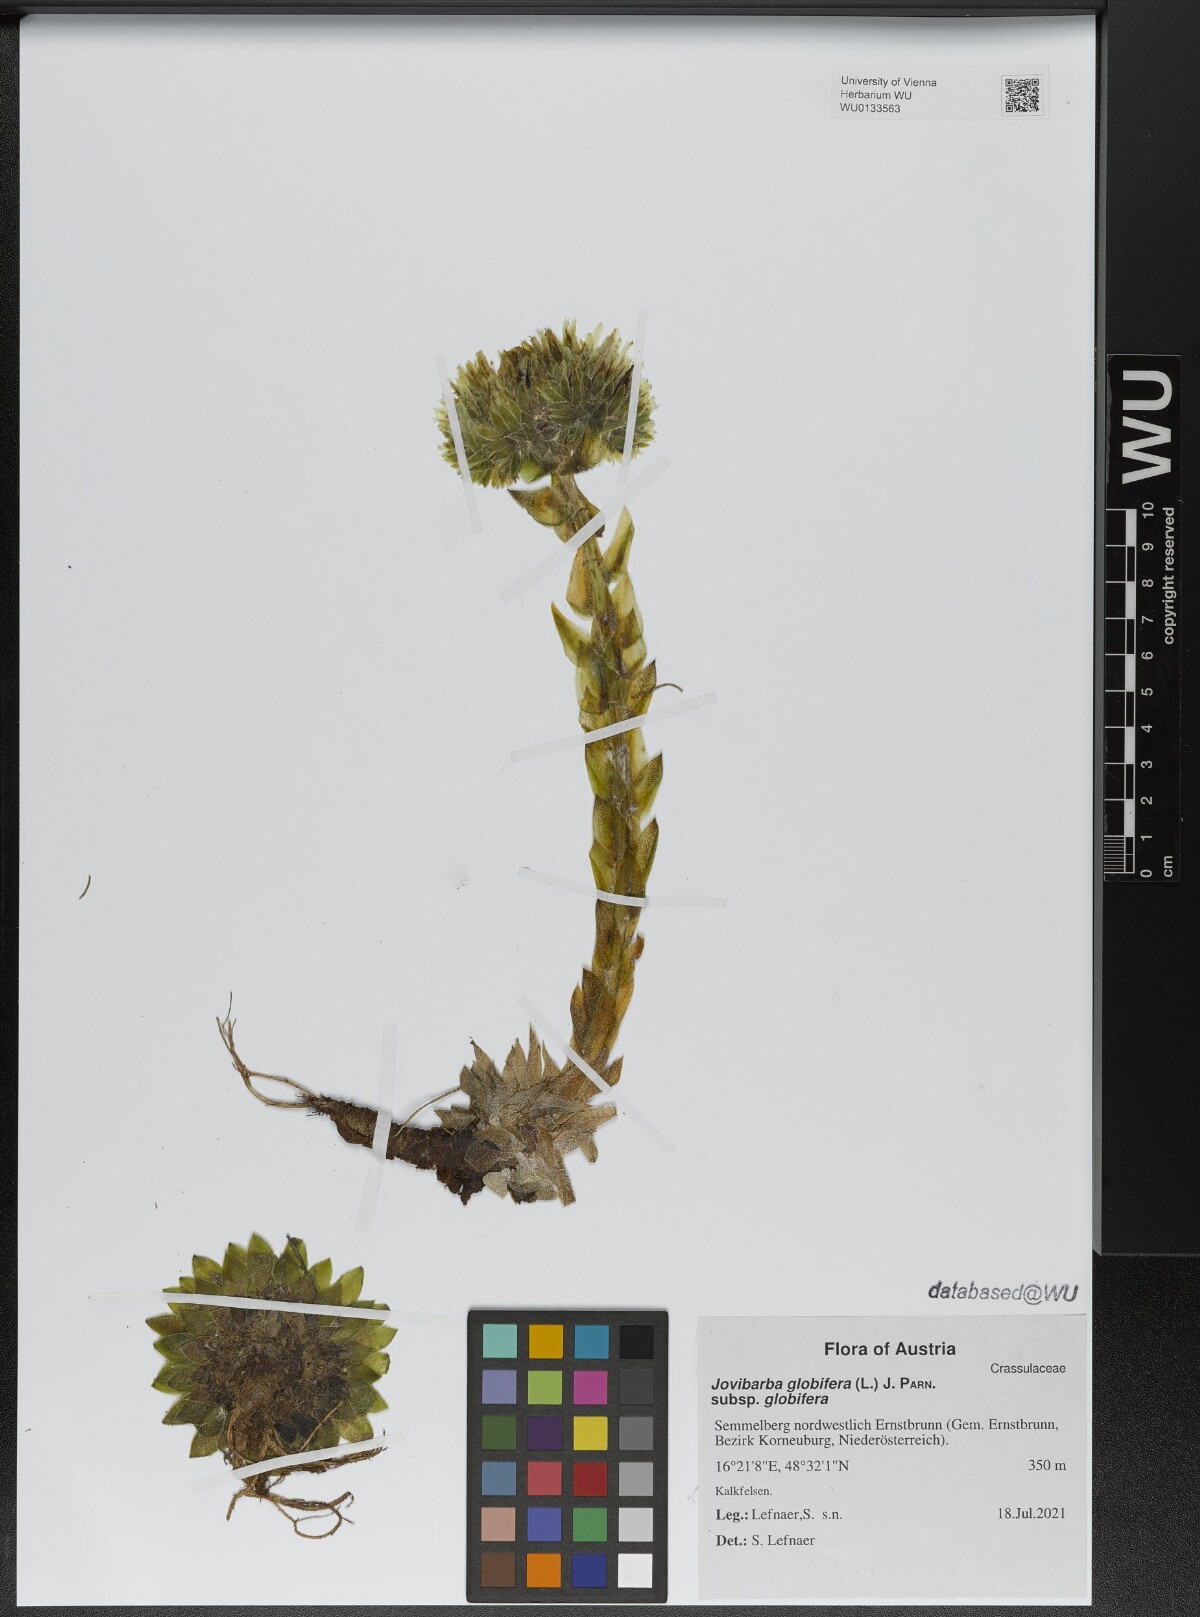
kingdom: Plantae
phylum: Tracheophyta
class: Magnoliopsida
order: Saxifragales
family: Crassulaceae
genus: Sempervivum
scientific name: Sempervivum globiferum
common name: Rolling hen-and-chicks
